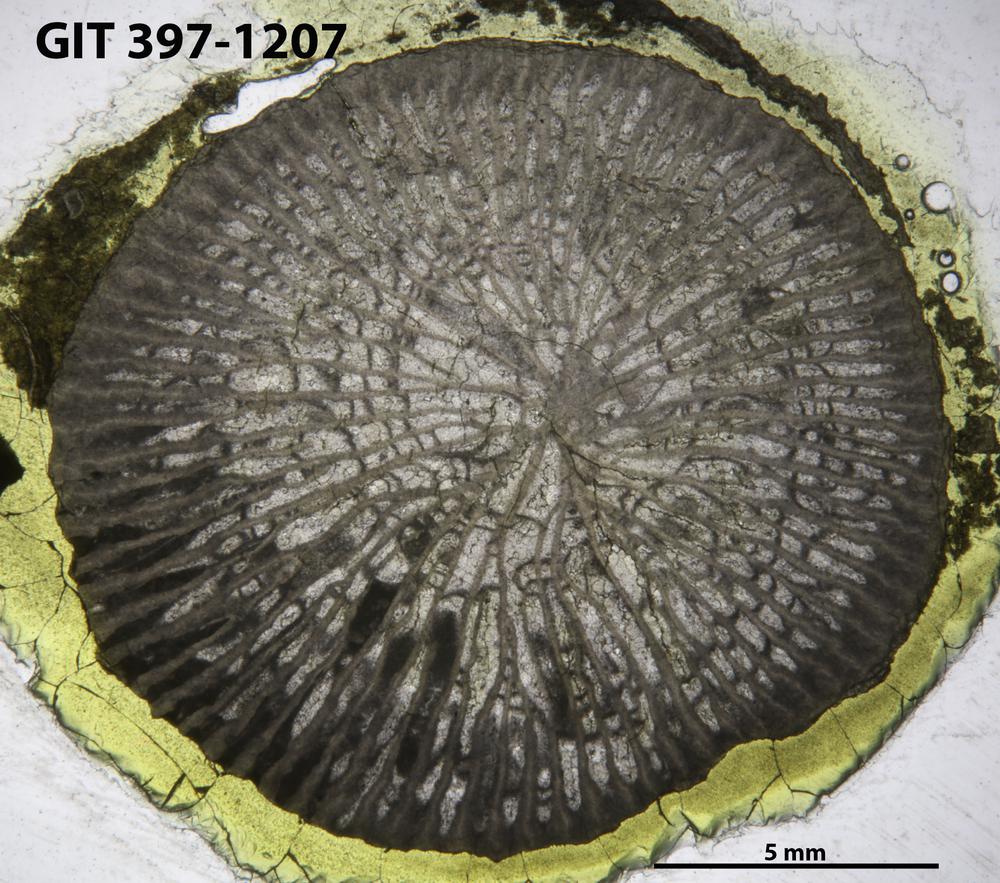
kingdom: Animalia
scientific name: Animalia
